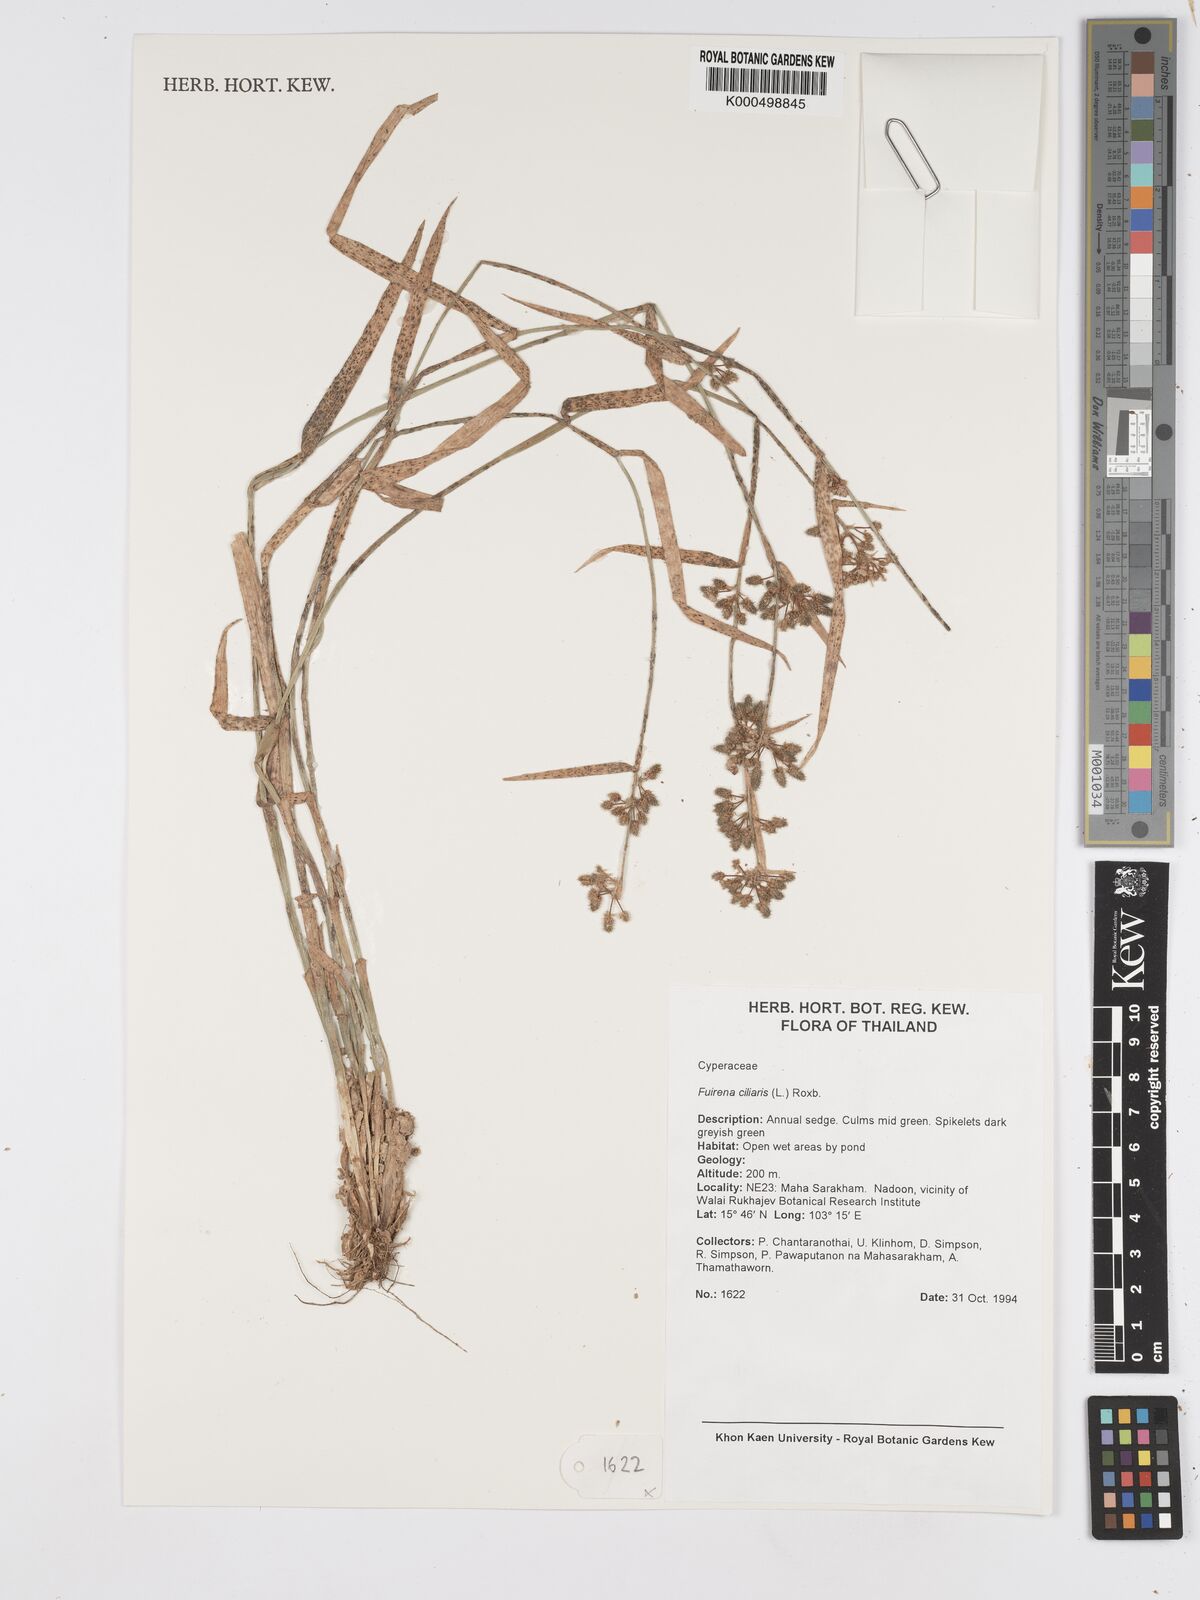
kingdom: Plantae
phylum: Tracheophyta
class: Liliopsida
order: Poales
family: Cyperaceae
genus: Fuirena
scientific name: Fuirena ciliaris
